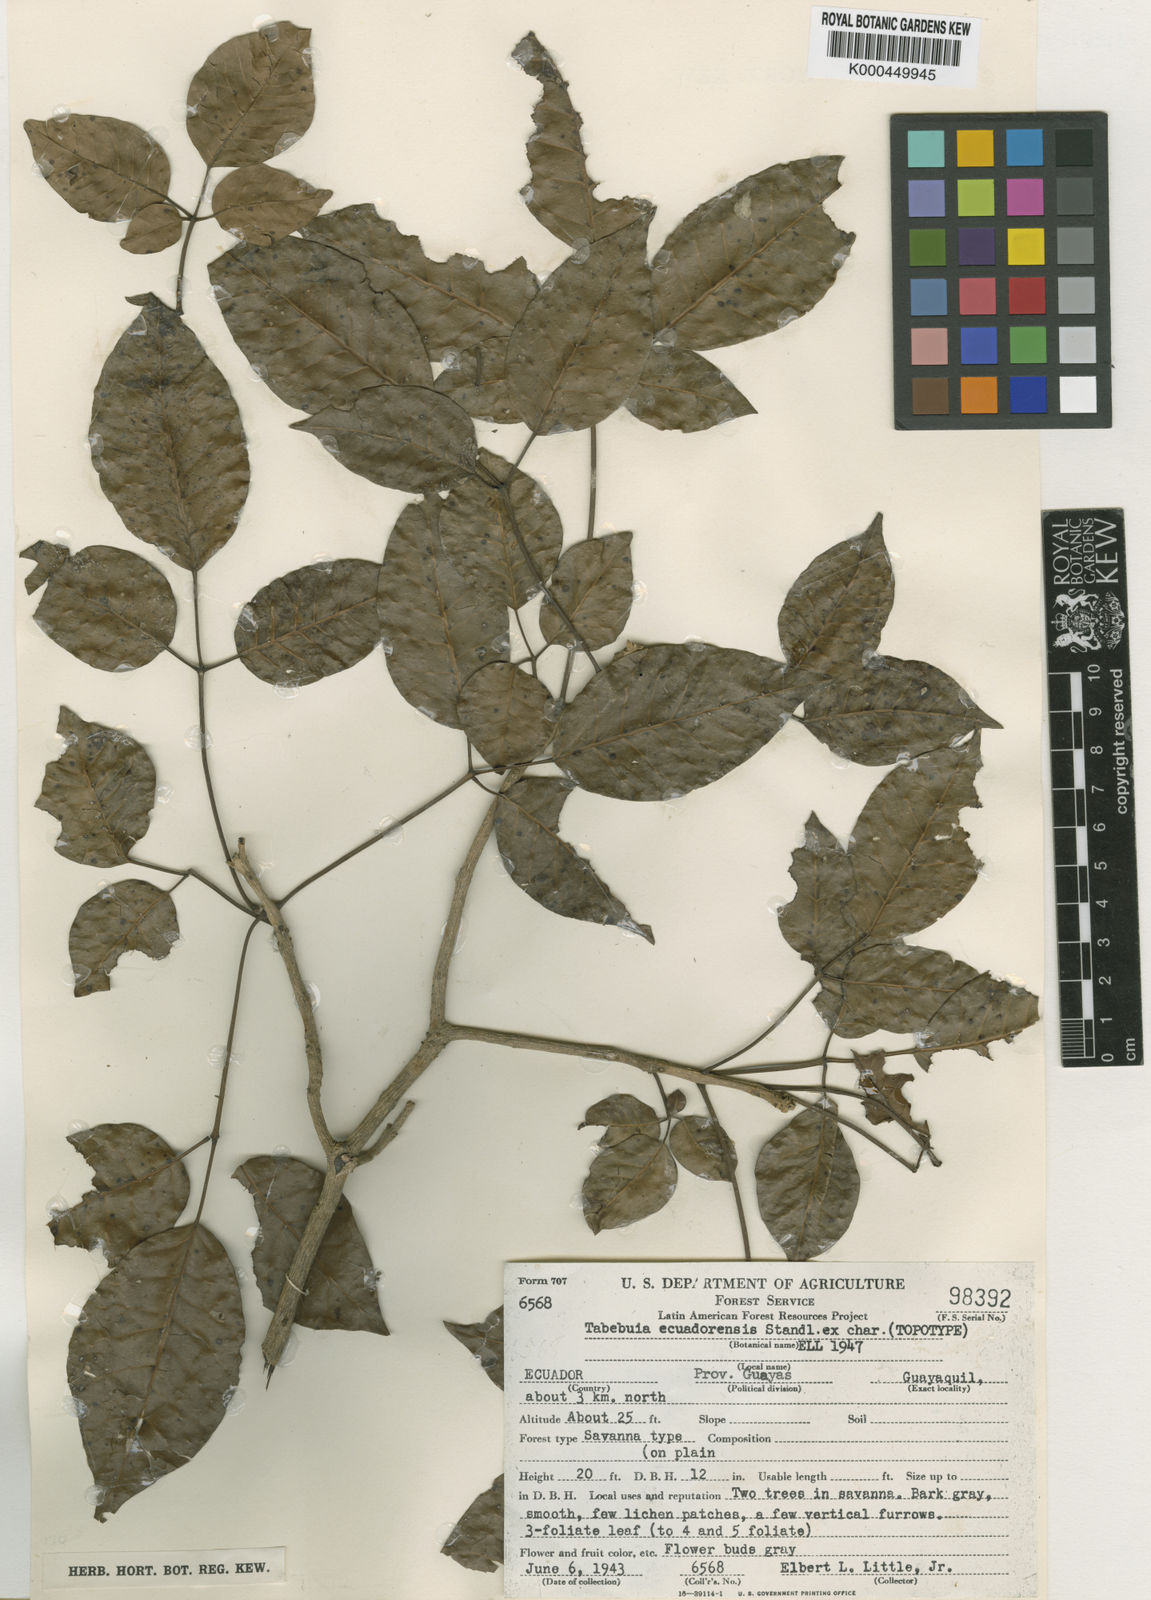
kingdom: Plantae
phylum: Tracheophyta
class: Magnoliopsida
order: Lamiales
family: Bignoniaceae
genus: Handroanthus
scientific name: Handroanthus billbergii
